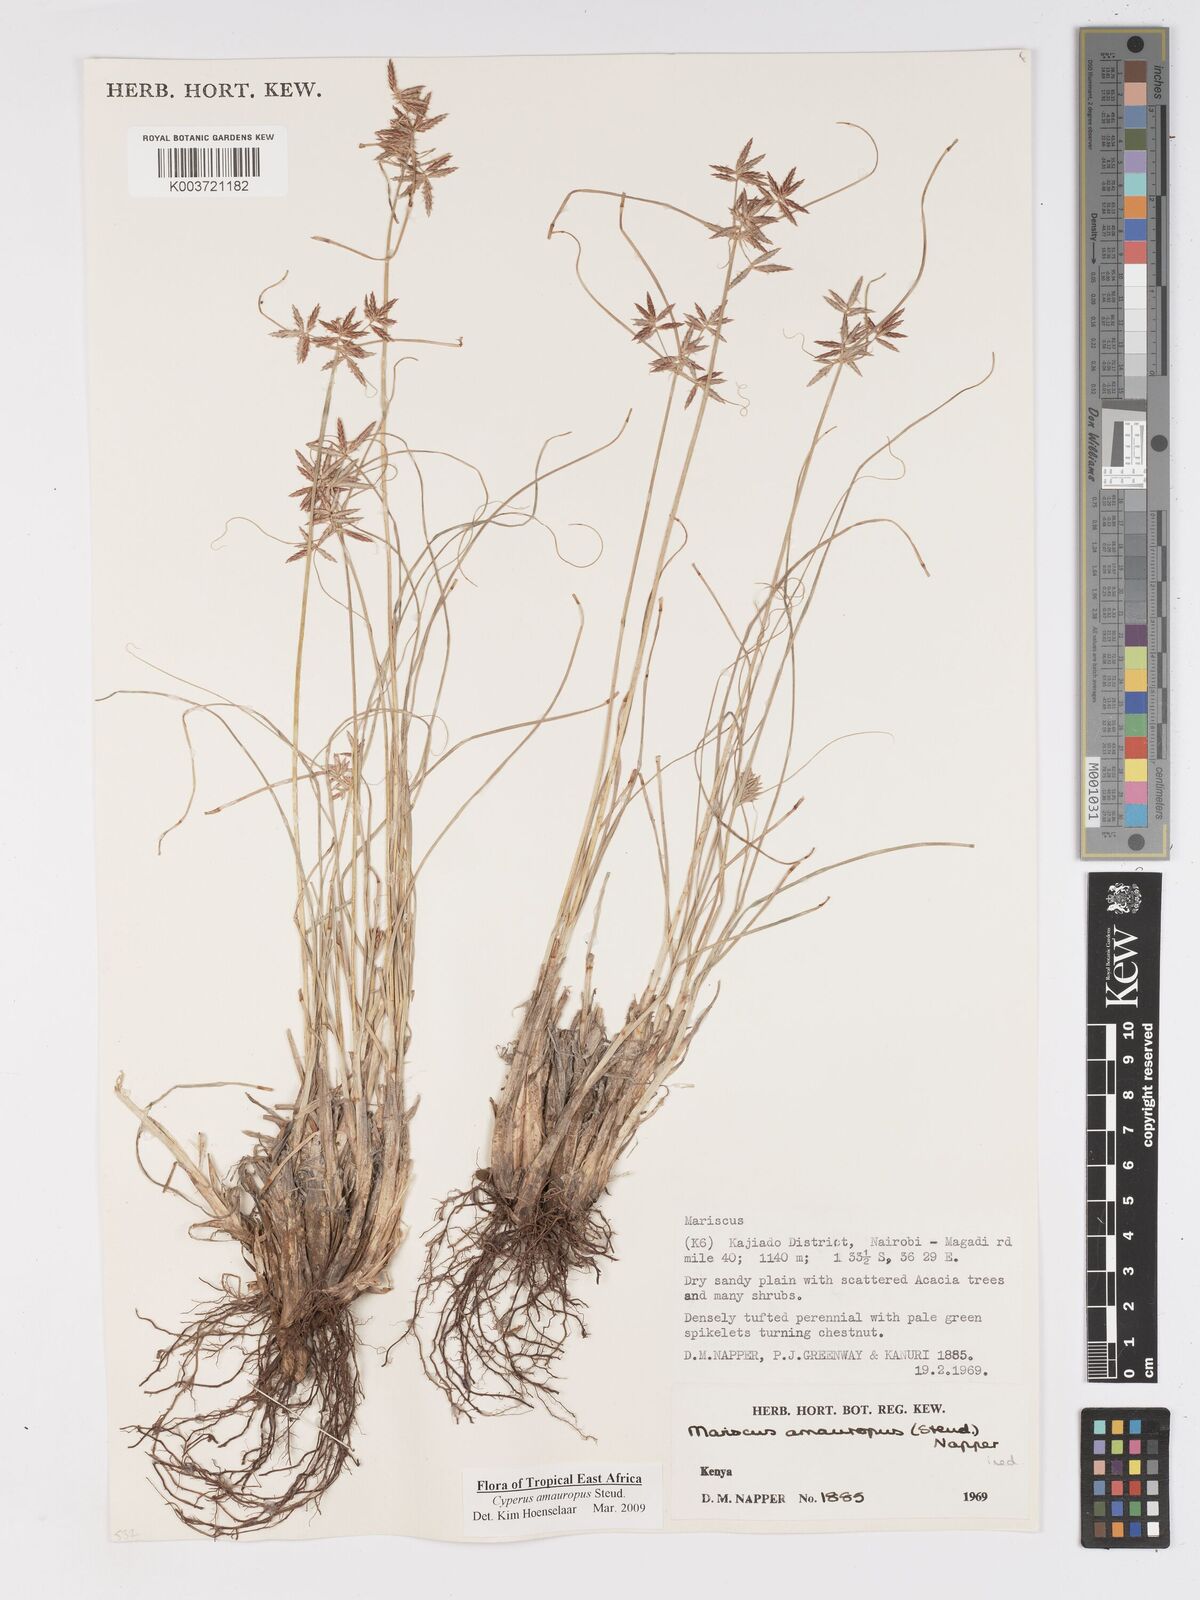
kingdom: Plantae
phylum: Tracheophyta
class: Liliopsida
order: Poales
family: Cyperaceae
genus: Cyperus
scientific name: Cyperus amauropus
